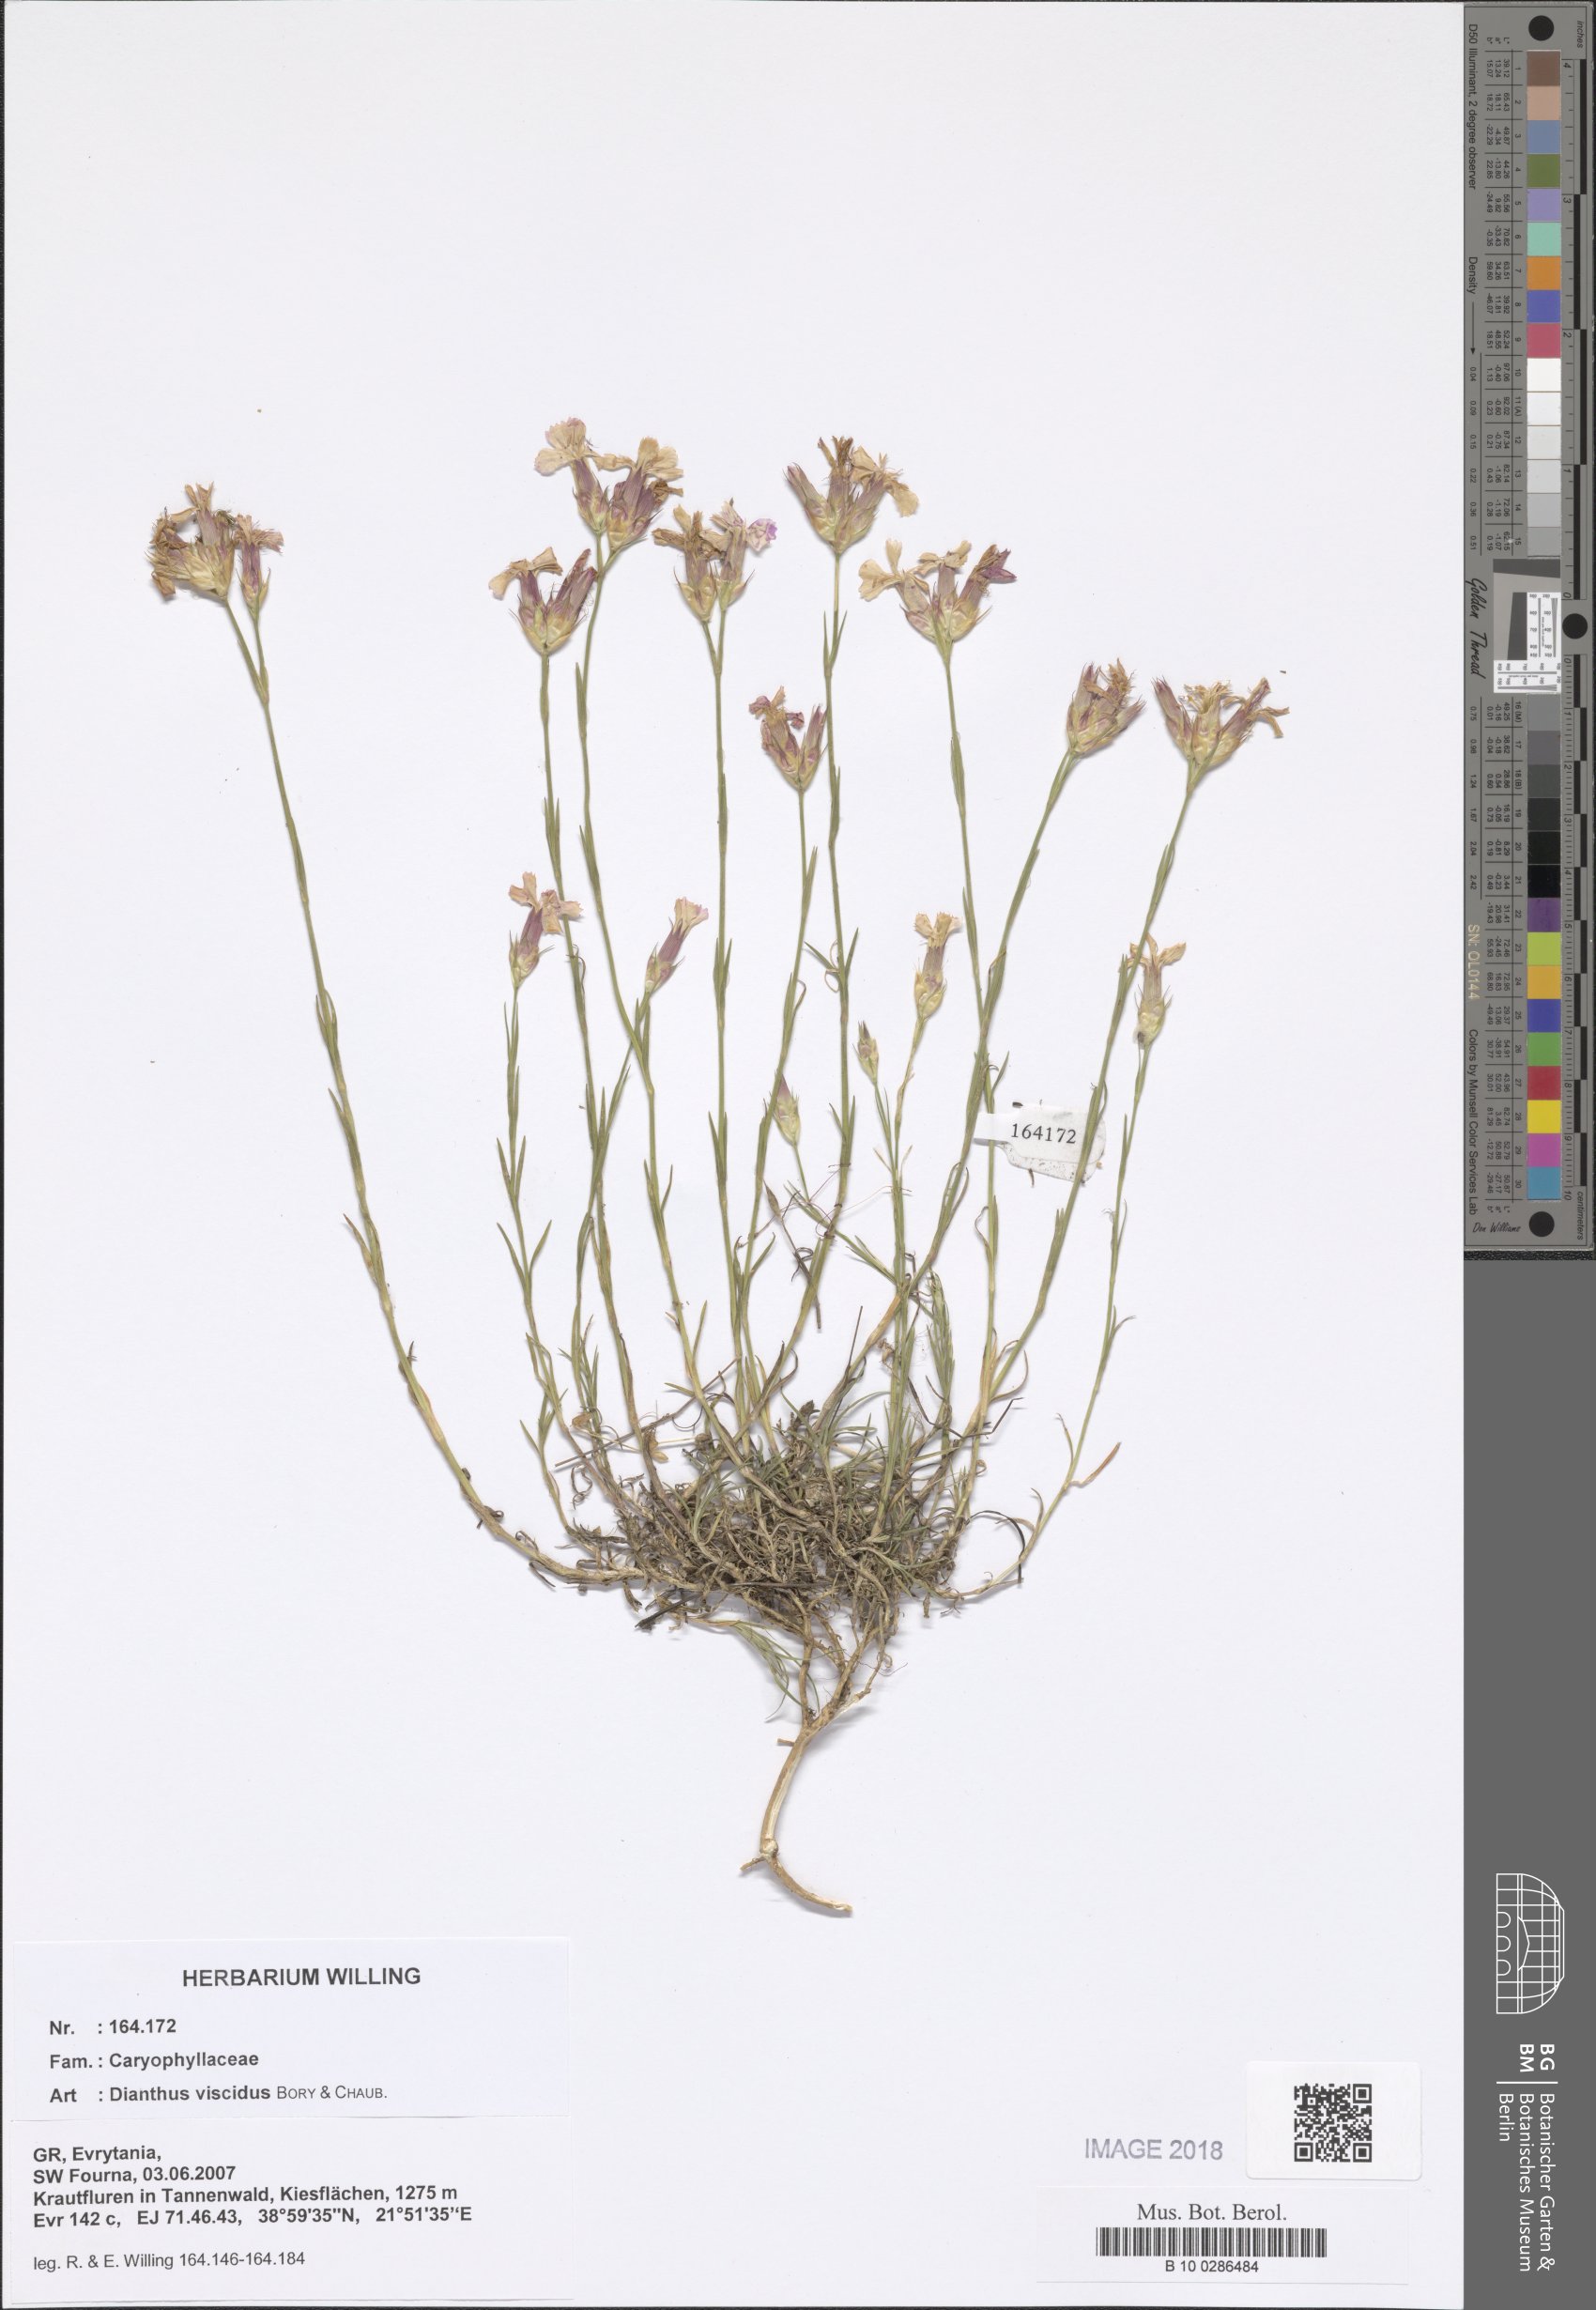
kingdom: Plantae
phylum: Tracheophyta
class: Magnoliopsida
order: Caryophyllales
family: Caryophyllaceae
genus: Dianthus
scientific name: Dianthus viscidus
